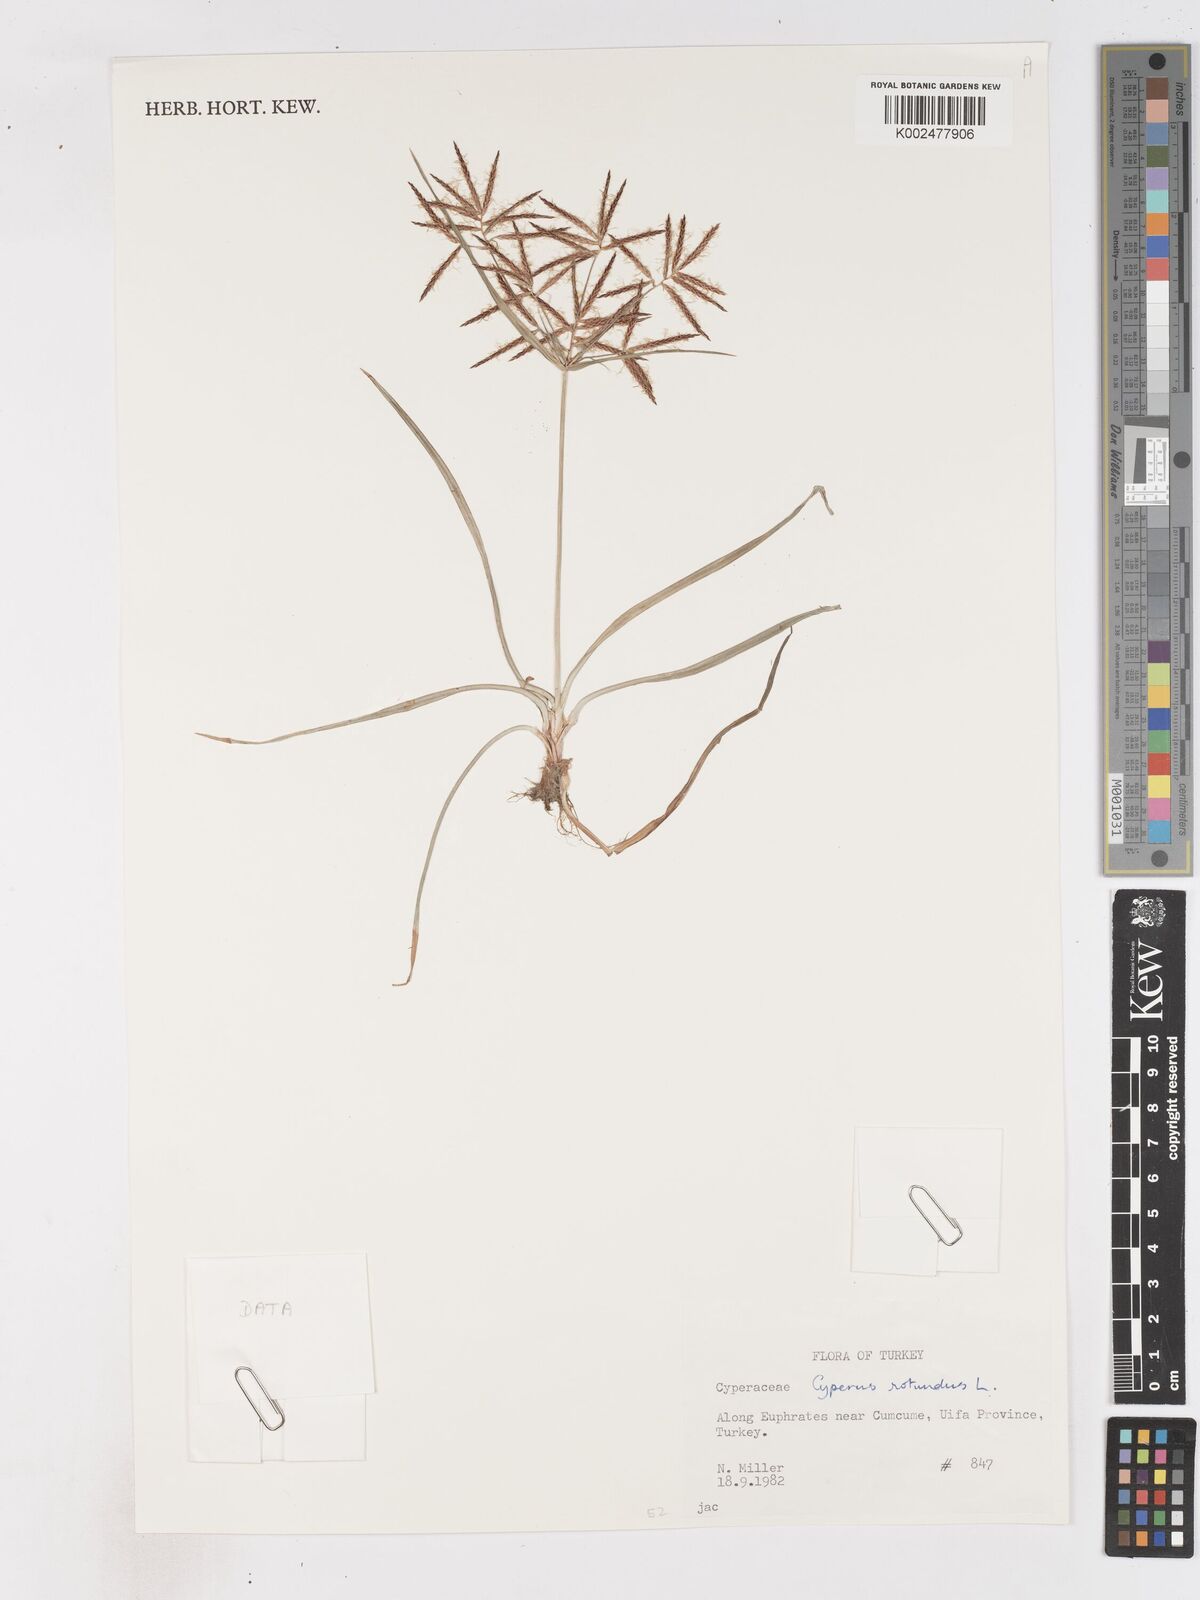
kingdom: Plantae
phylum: Tracheophyta
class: Liliopsida
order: Poales
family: Cyperaceae
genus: Cyperus
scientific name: Cyperus rotundus
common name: Nutgrass
